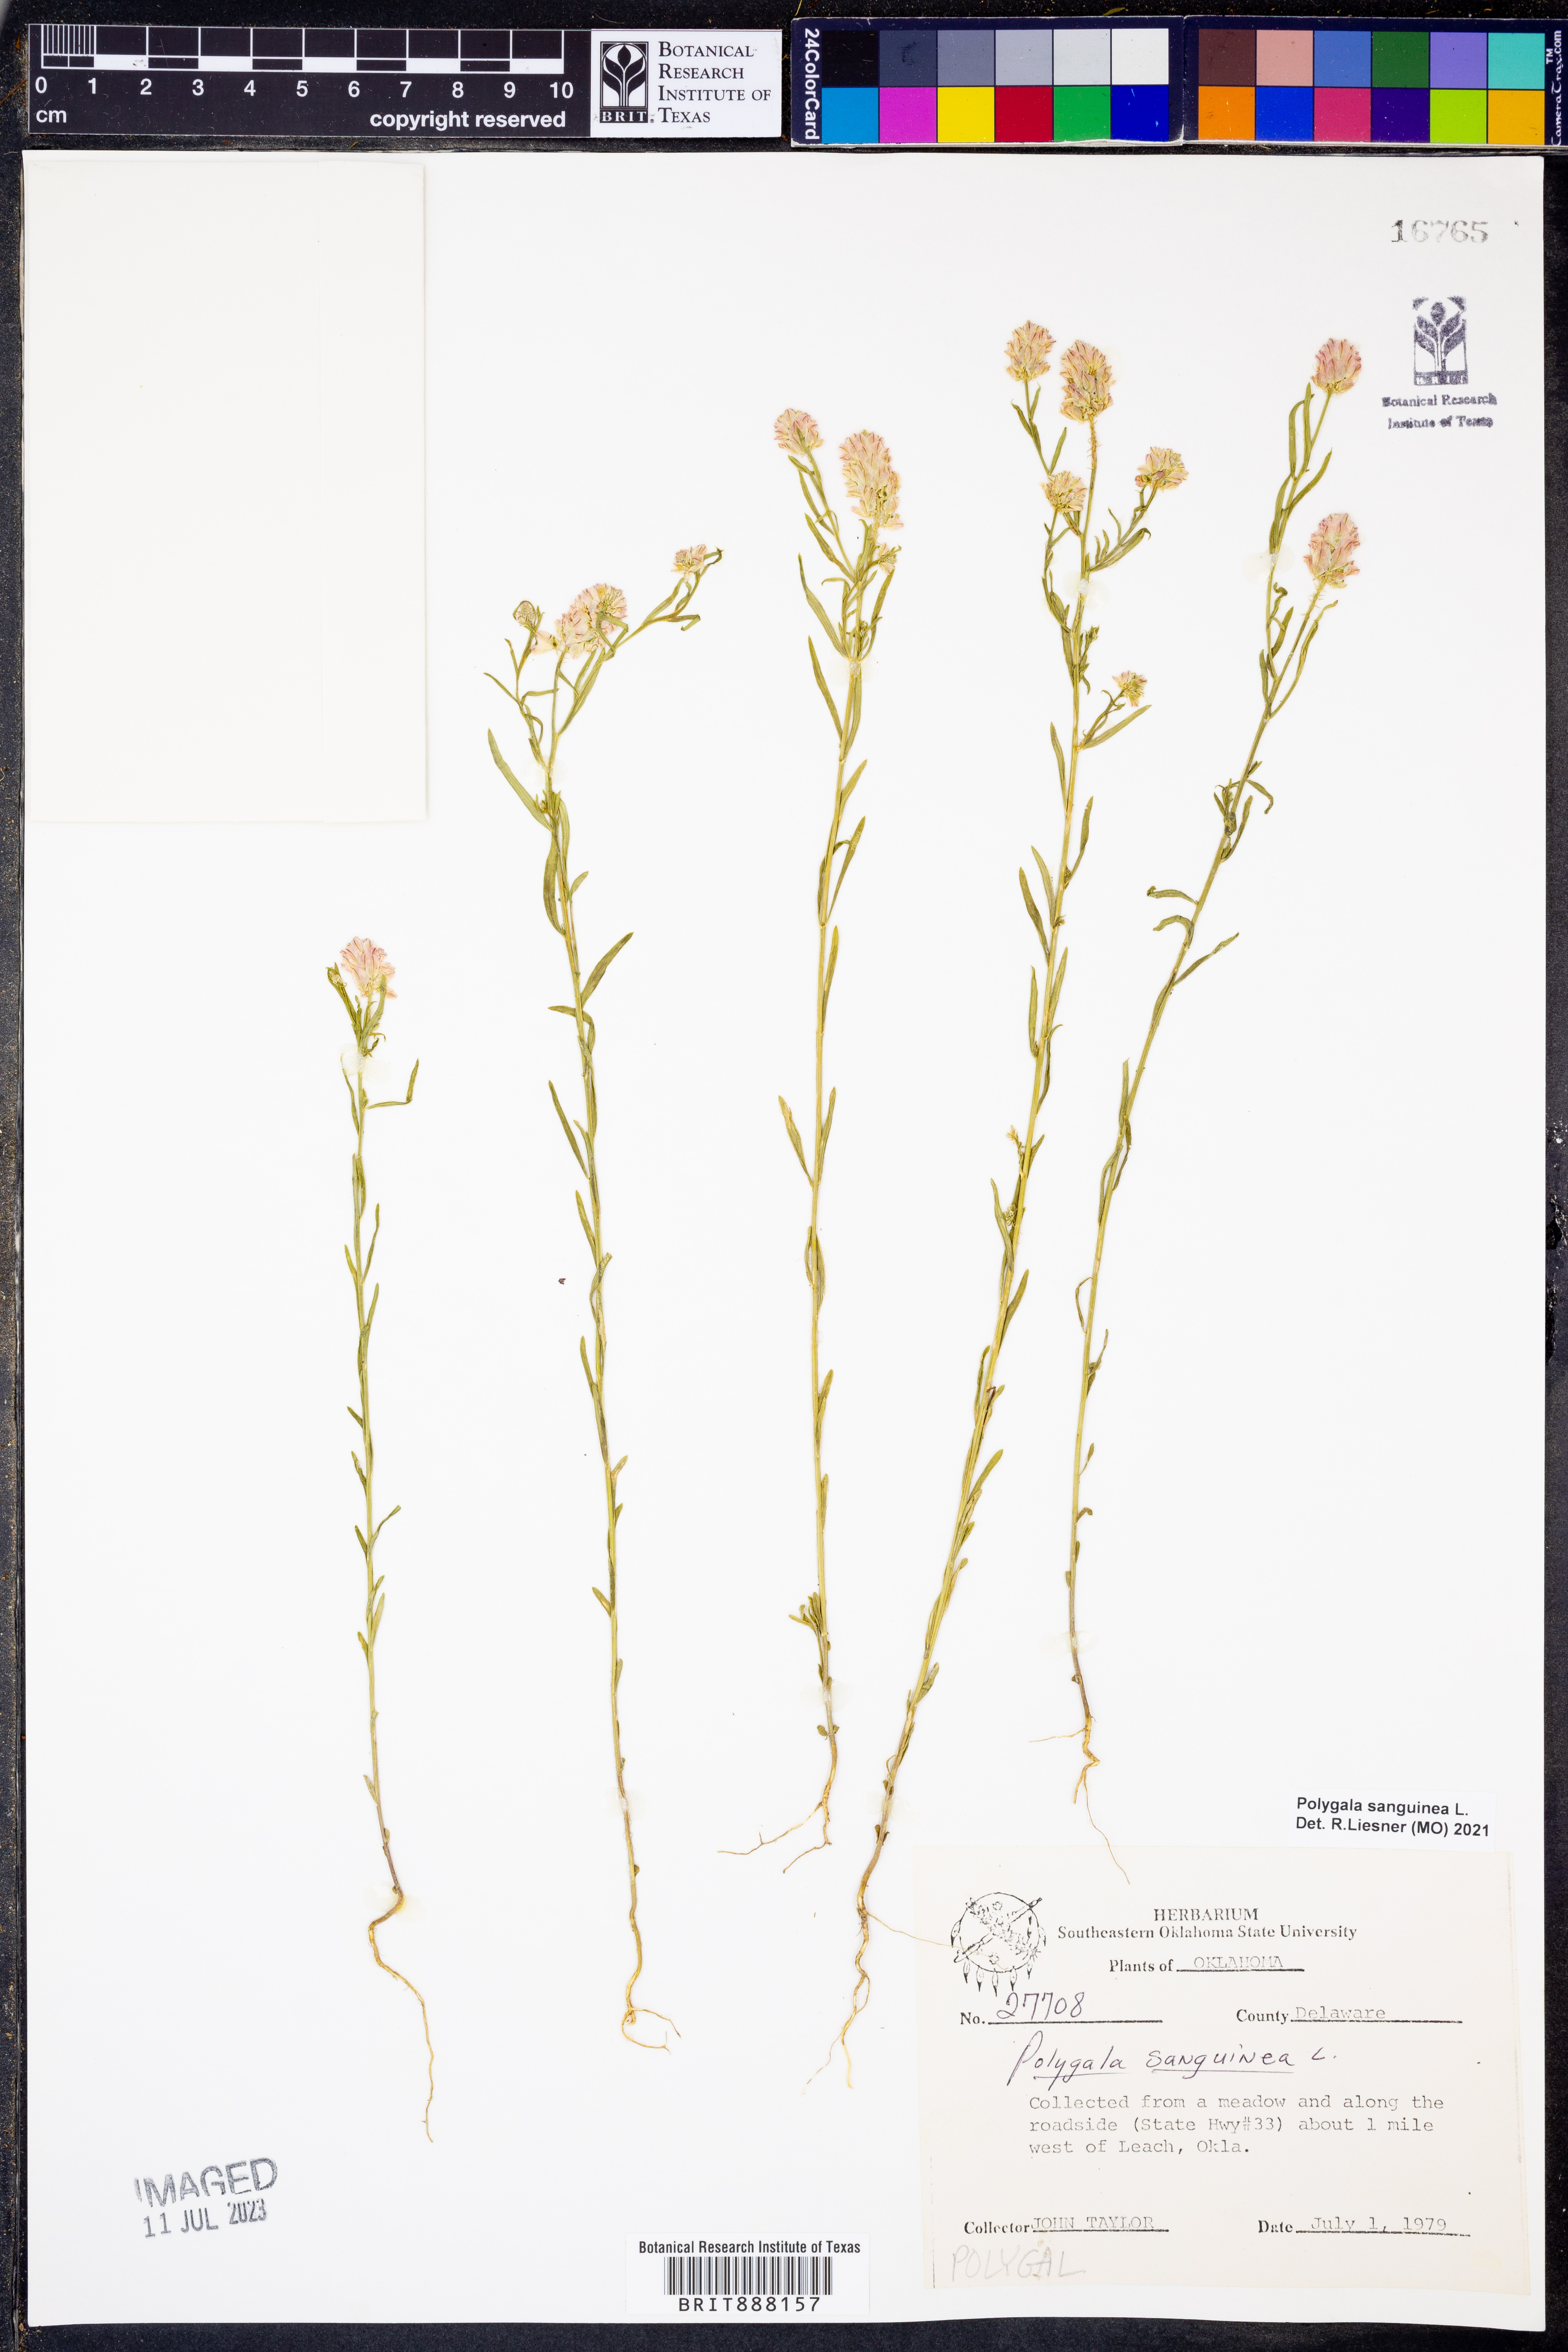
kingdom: Plantae
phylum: Tracheophyta
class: Magnoliopsida
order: Fabales
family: Polygalaceae
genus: Polygala
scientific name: Polygala sanguinea
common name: Blood milkwort
